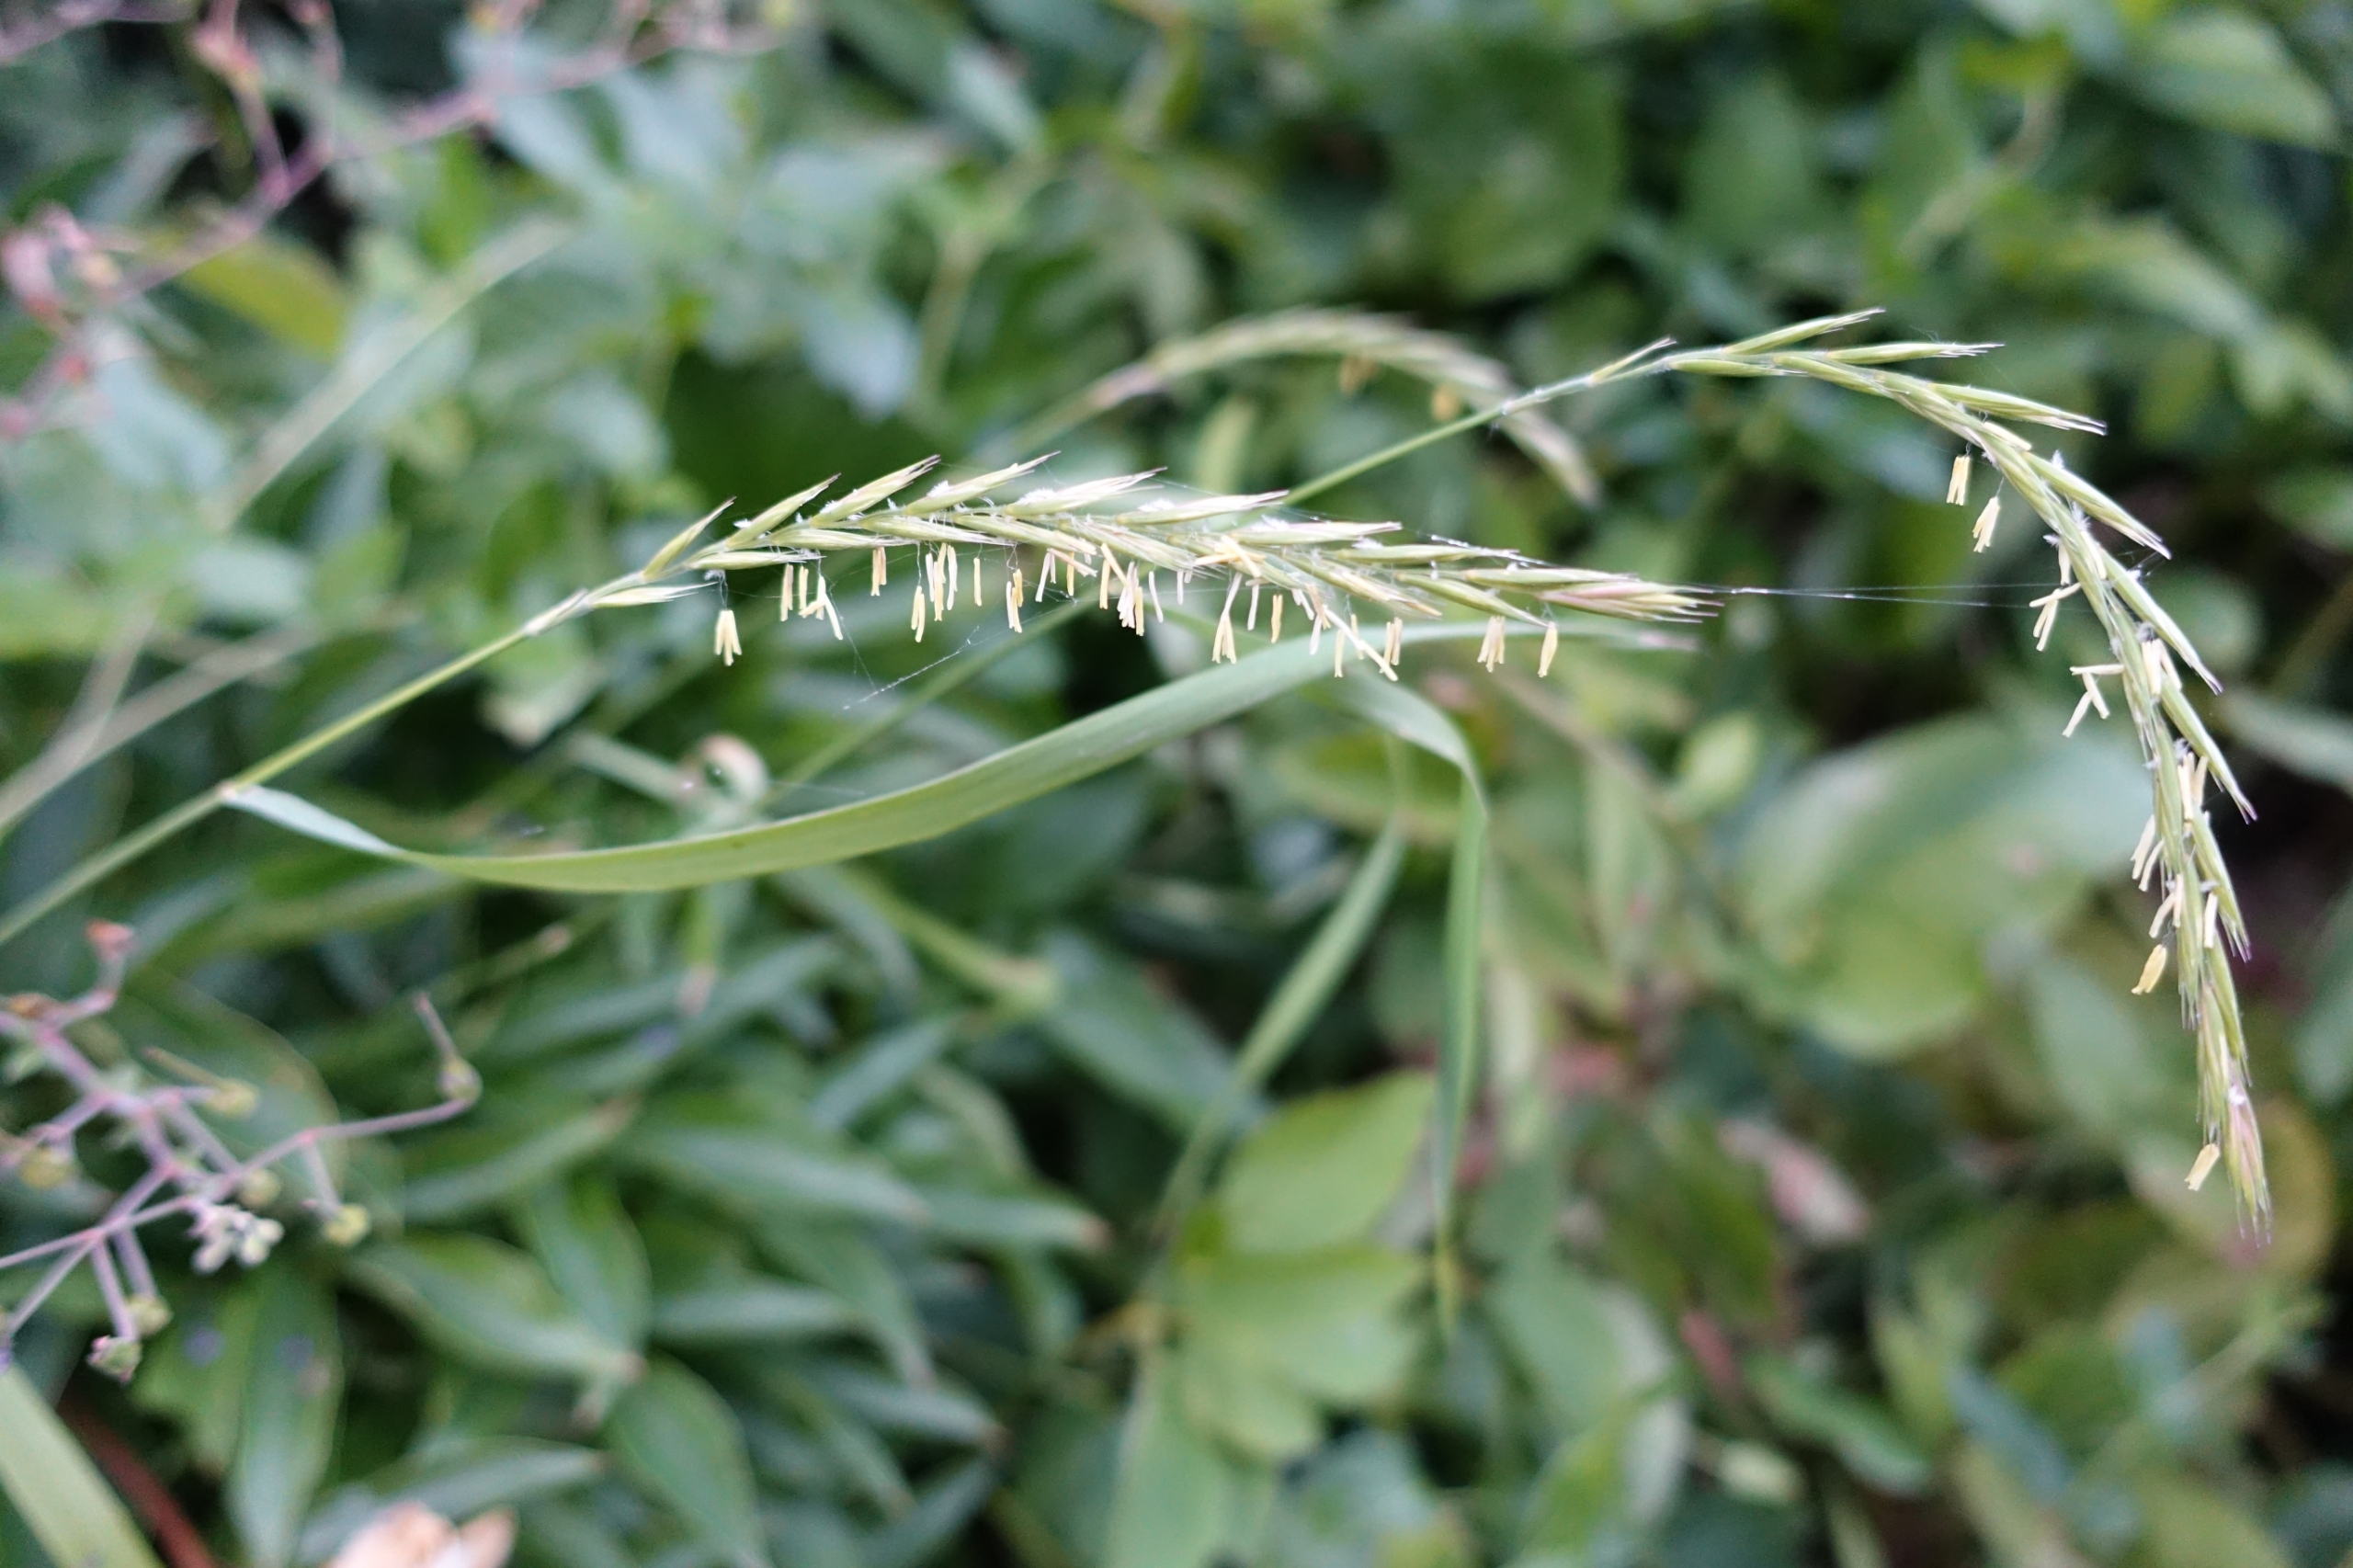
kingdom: Plantae
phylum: Tracheophyta
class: Liliopsida
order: Poales
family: Poaceae
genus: Elymus
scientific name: Elymus repens
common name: Almindelig kvik
